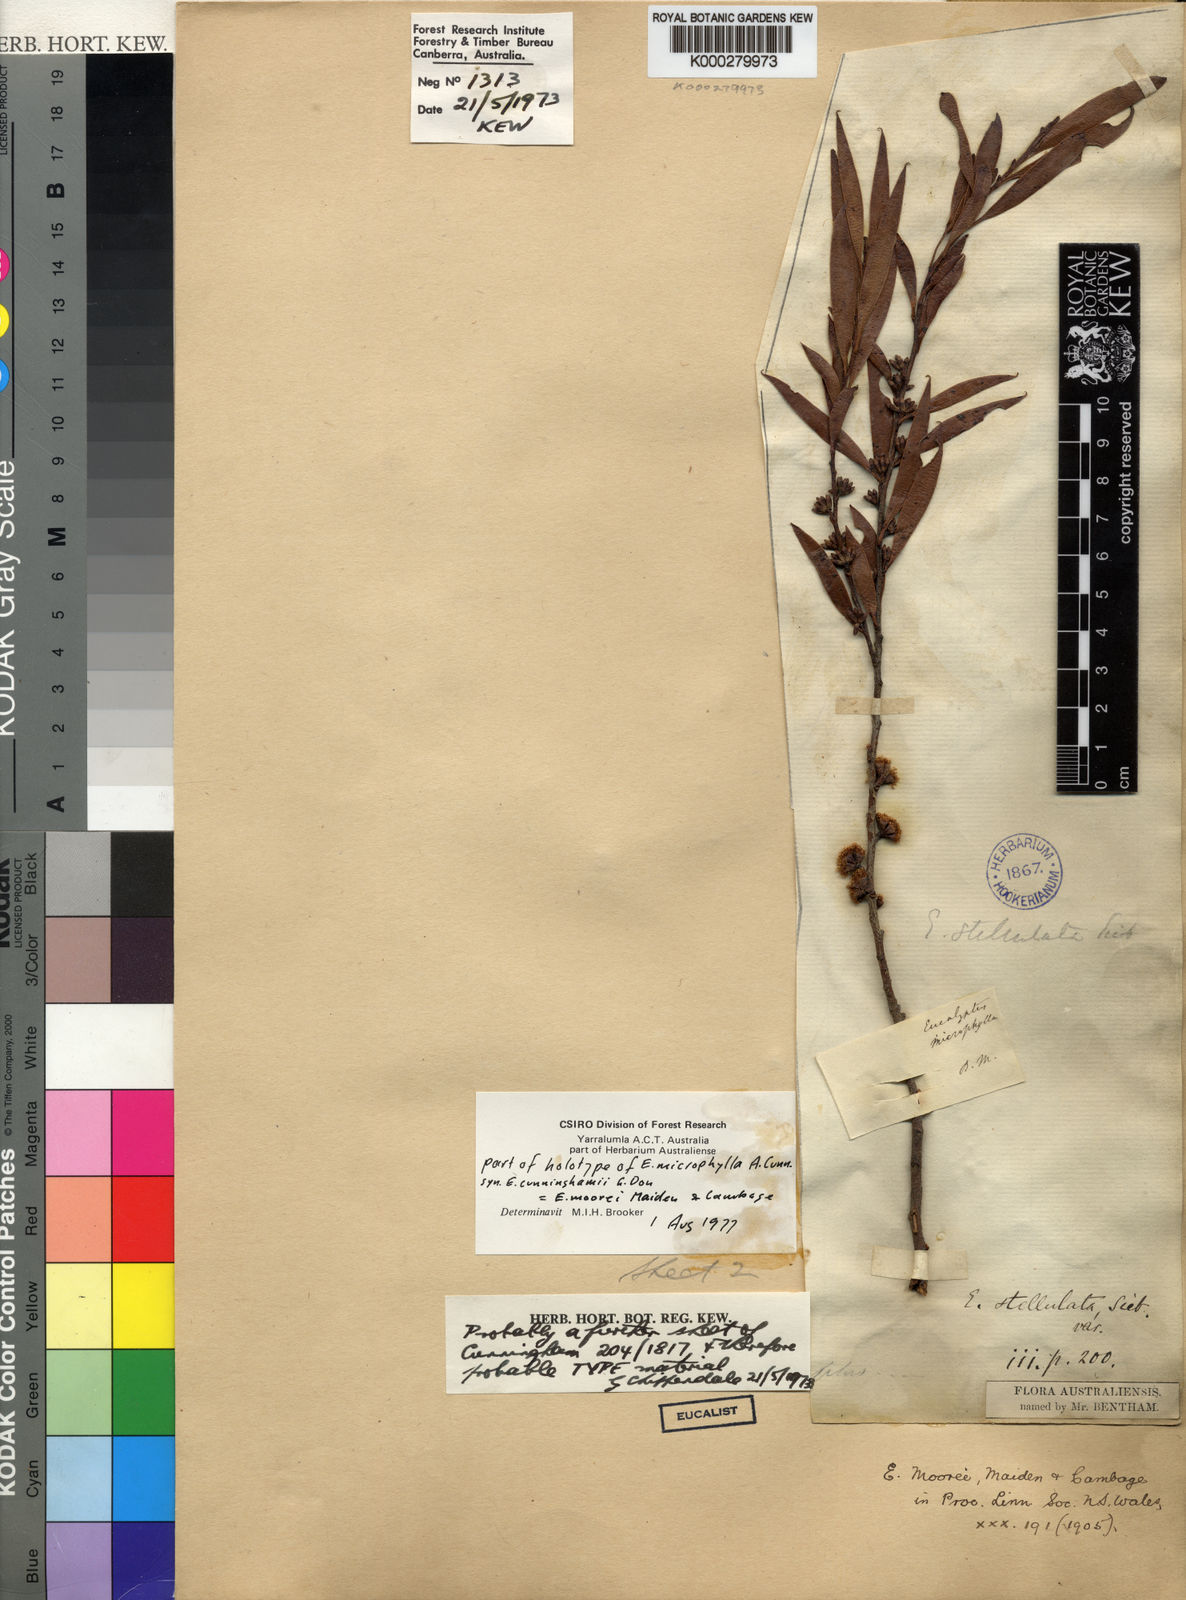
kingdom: Plantae
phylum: Tracheophyta
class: Magnoliopsida
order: Myrtales
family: Myrtaceae
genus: Eucalyptus
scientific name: Eucalyptus moorei
